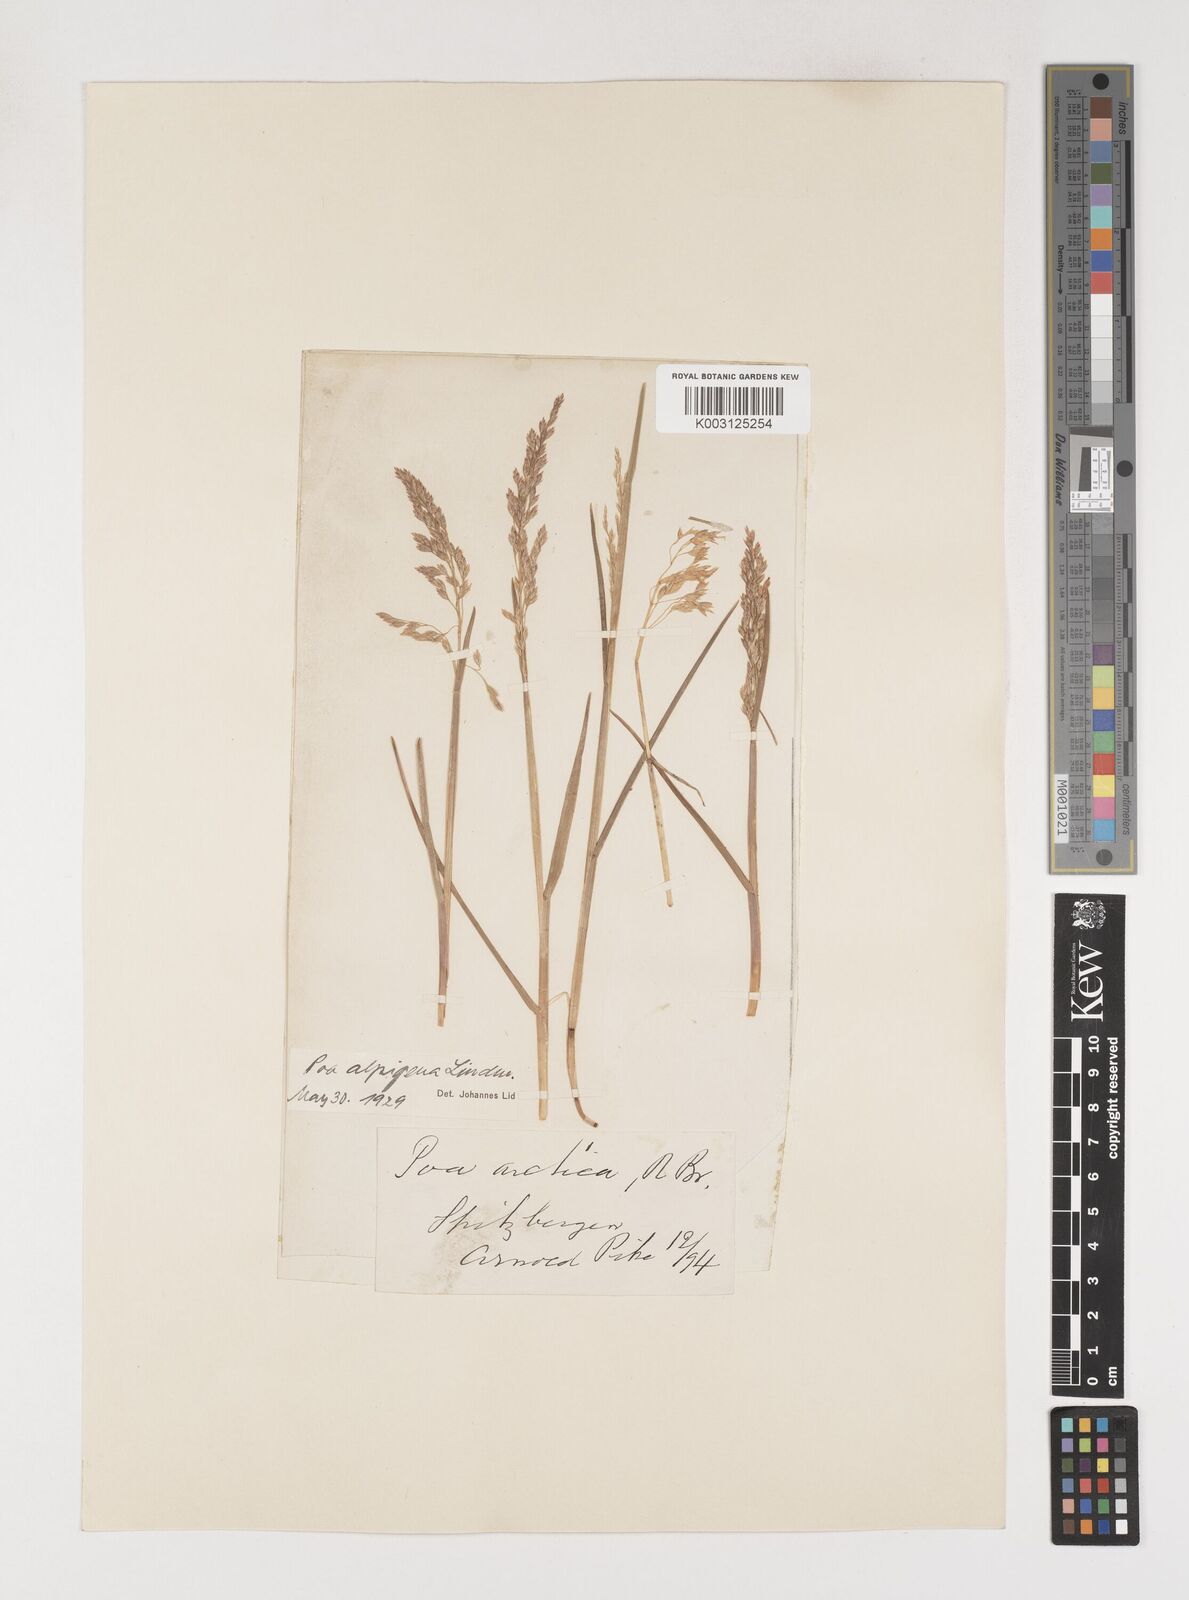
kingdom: Plantae
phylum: Tracheophyta
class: Liliopsida
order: Poales
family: Poaceae
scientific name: Poaceae
